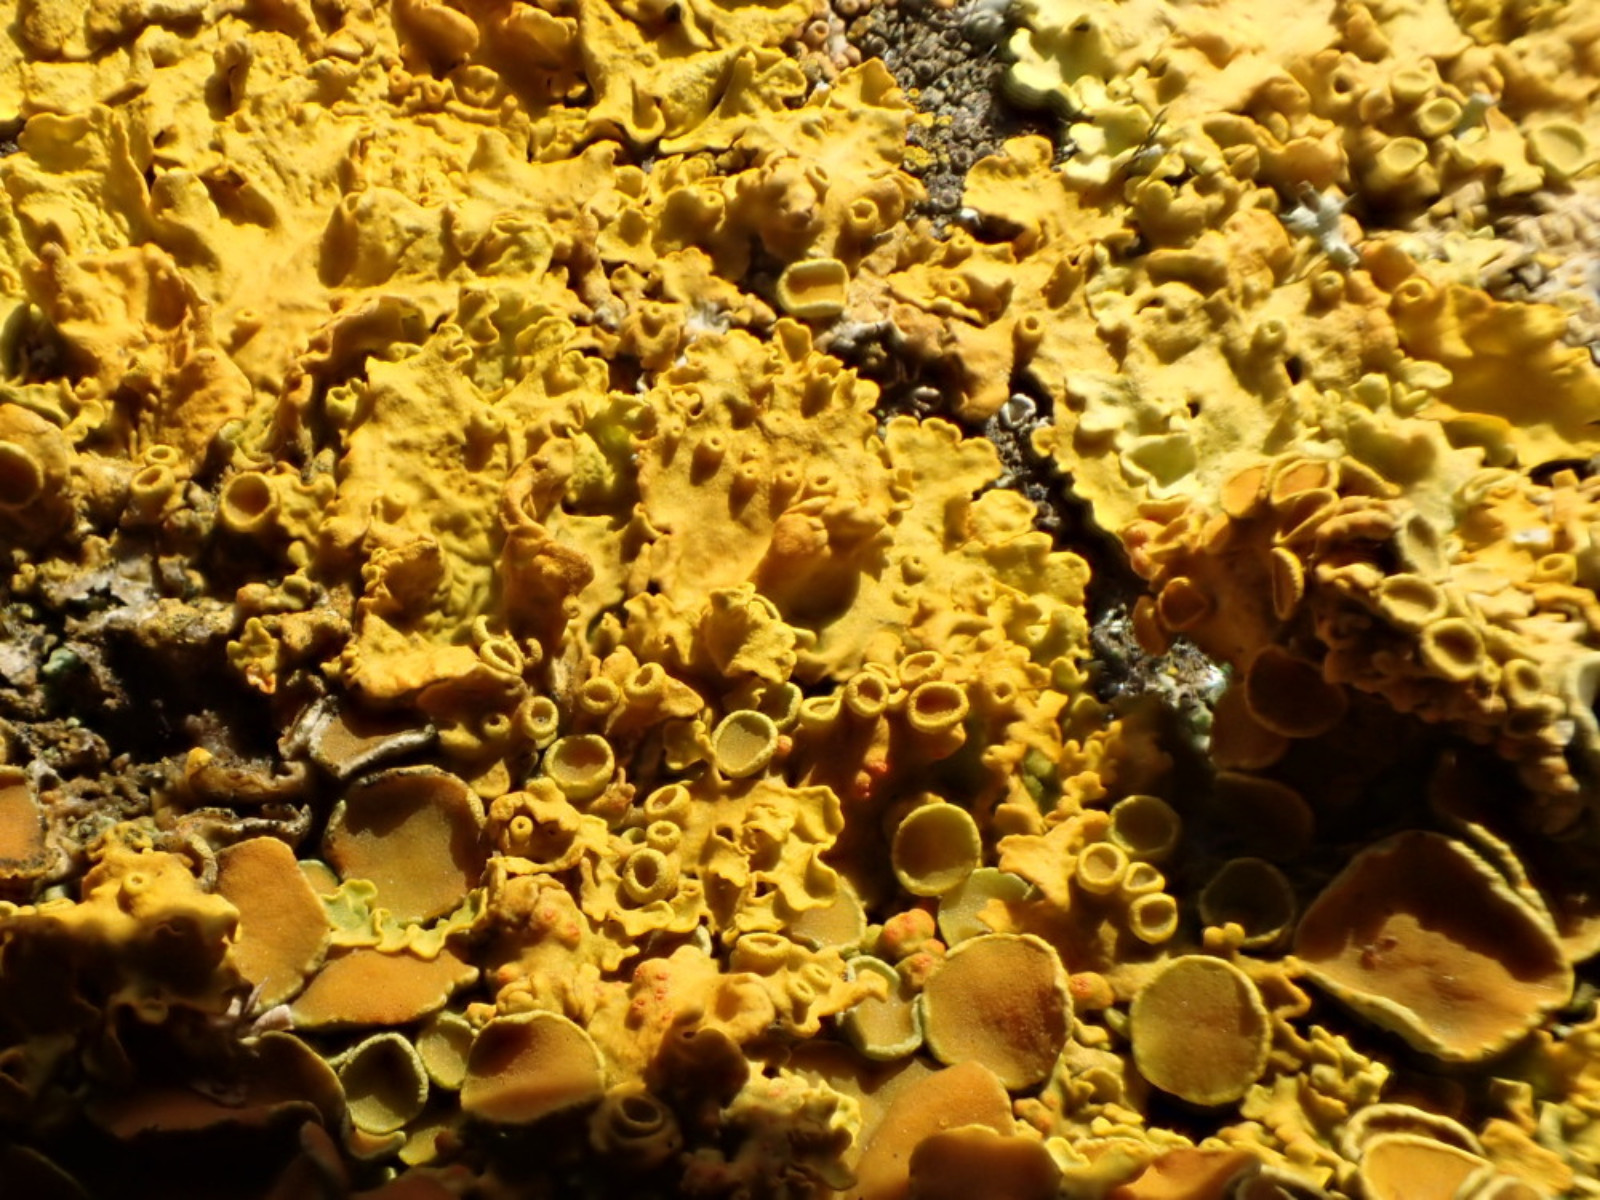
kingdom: Fungi
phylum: Ascomycota
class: Lecanoromycetes
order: Teloschistales
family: Teloschistaceae
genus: Xanthoria
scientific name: Xanthoria parietina
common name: almindelig væggelav
